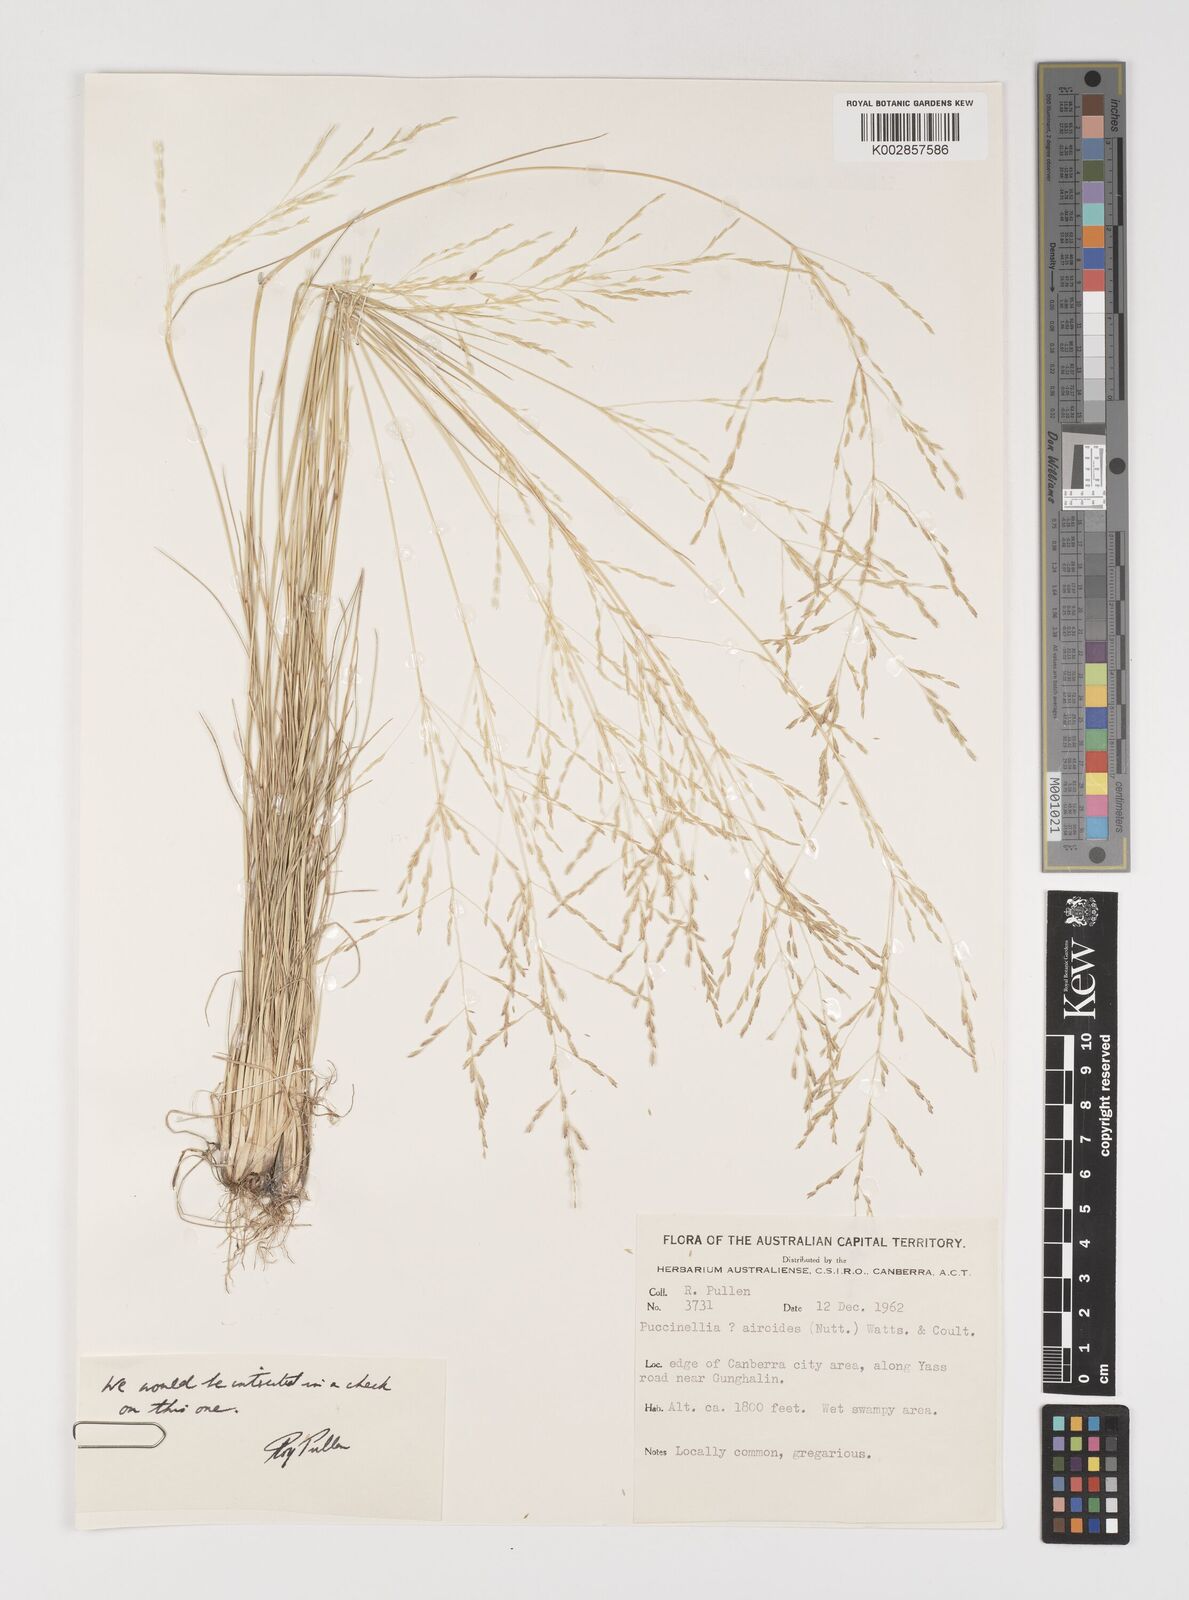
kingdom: Plantae
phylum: Tracheophyta
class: Liliopsida
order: Poales
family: Poaceae
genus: Puccinellia
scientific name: Puccinellia
